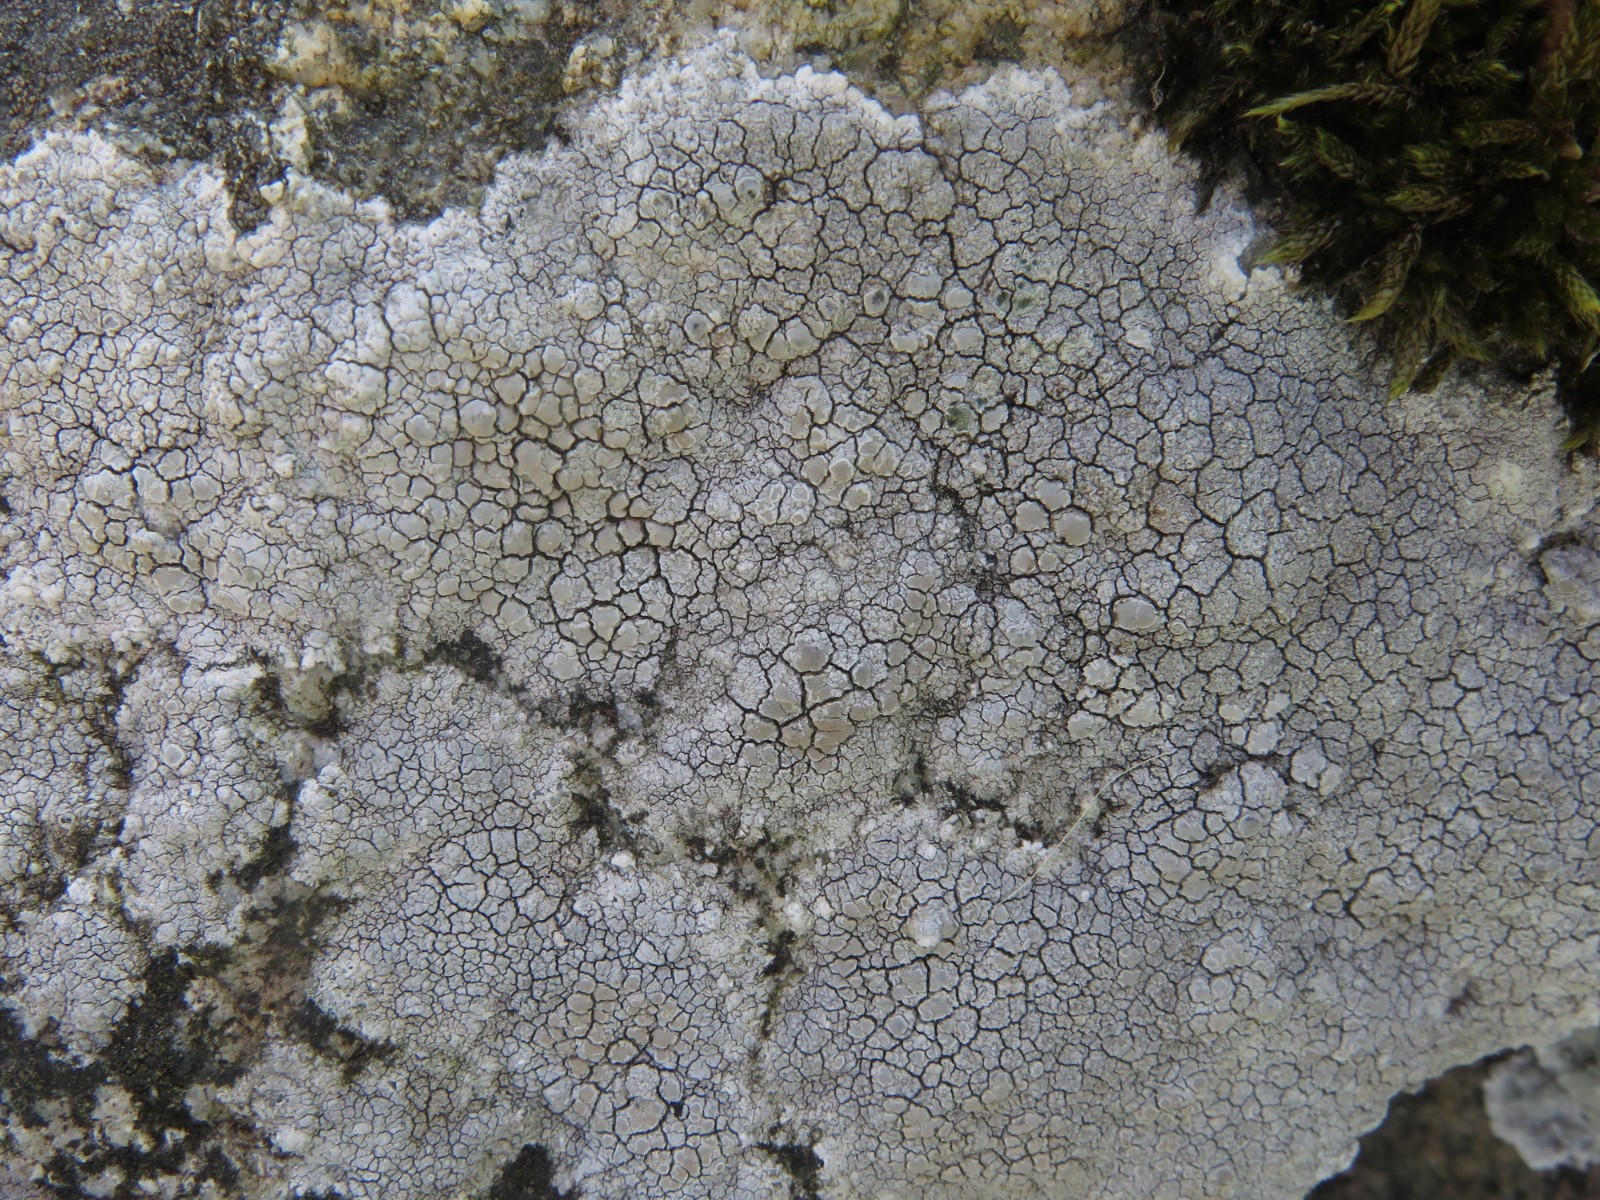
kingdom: Fungi
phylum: Ascomycota
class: Lecanoromycetes
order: Lecanorales
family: Lecanoraceae
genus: Glaucomaria
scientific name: Glaucomaria rupicola
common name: stengærde-kantskivelav
